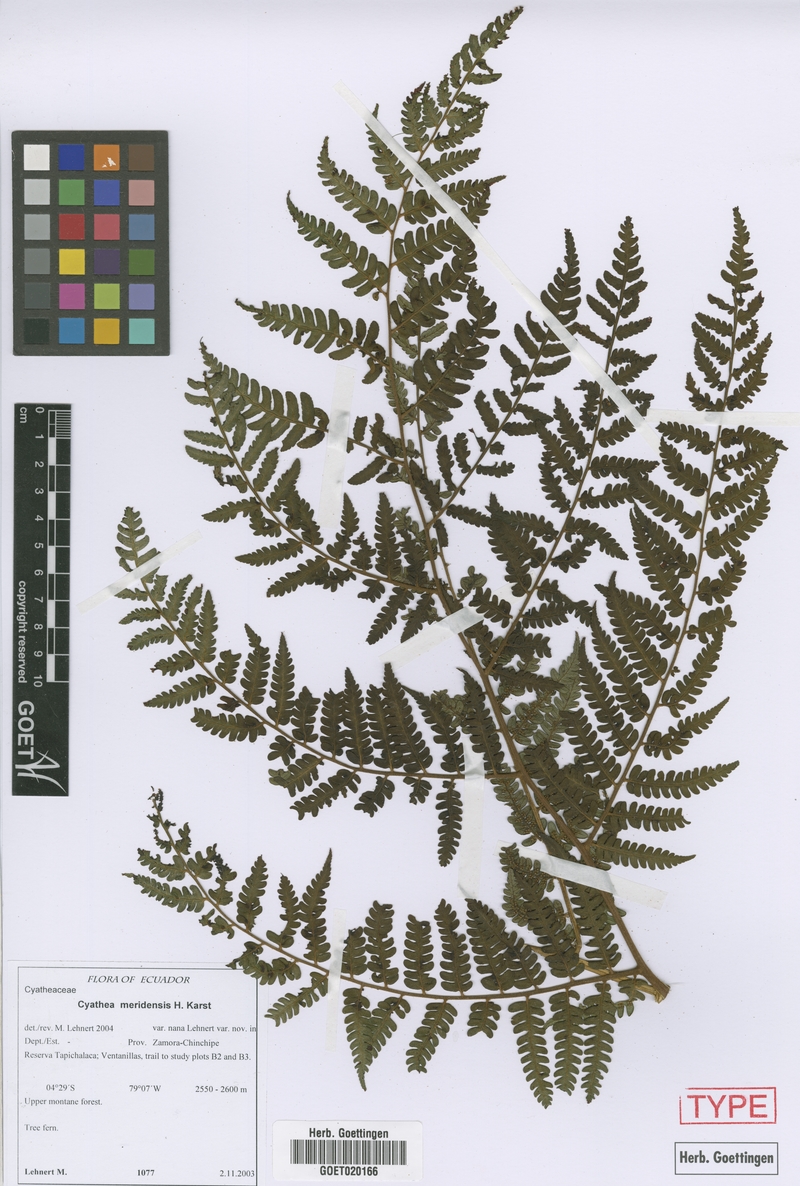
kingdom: Plantae
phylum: Tracheophyta
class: Polypodiopsida
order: Cyatheales
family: Cyatheaceae
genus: Cyathea
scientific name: Cyathea meridensis
